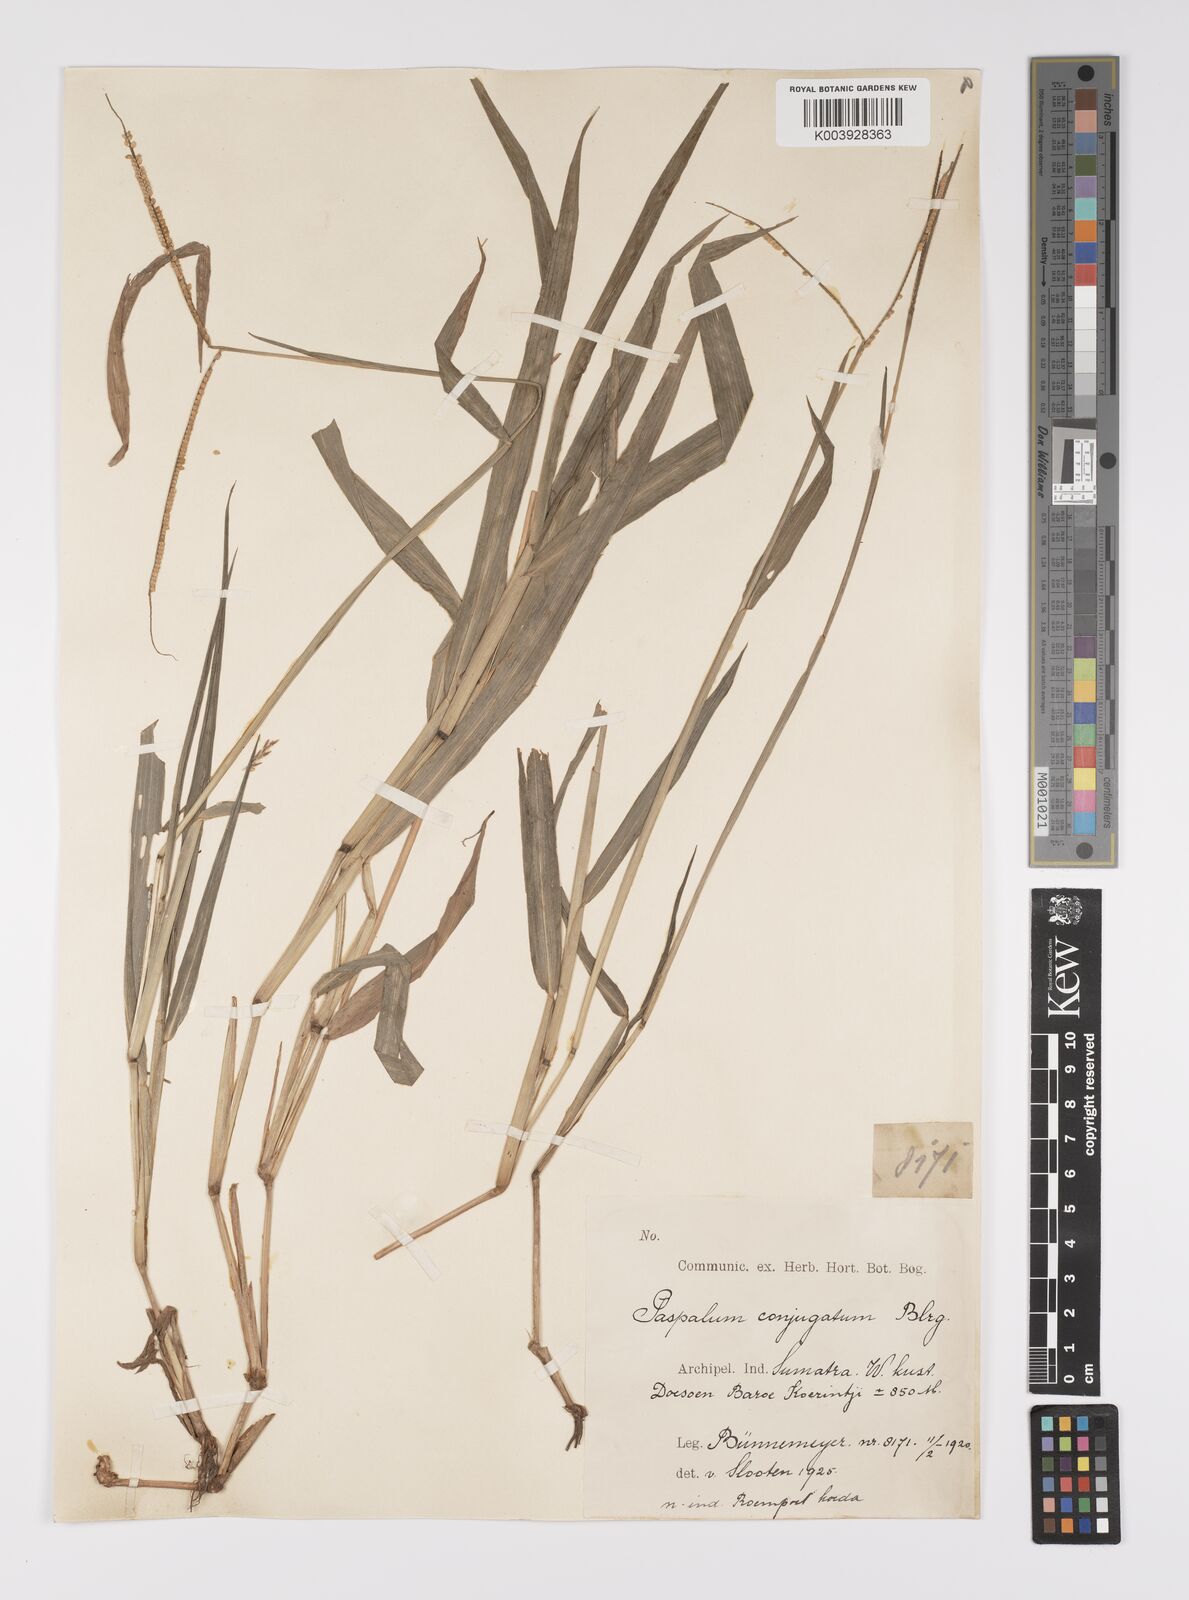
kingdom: Plantae
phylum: Tracheophyta
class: Liliopsida
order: Poales
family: Poaceae
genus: Paspalum
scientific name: Paspalum conjugatum
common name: Hilograss
